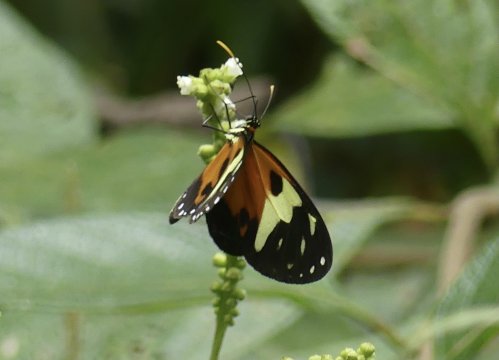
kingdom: Animalia
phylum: Arthropoda
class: Insecta
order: Lepidoptera
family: Nymphalidae
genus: Ithomia
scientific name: Ithomia iphianassa
